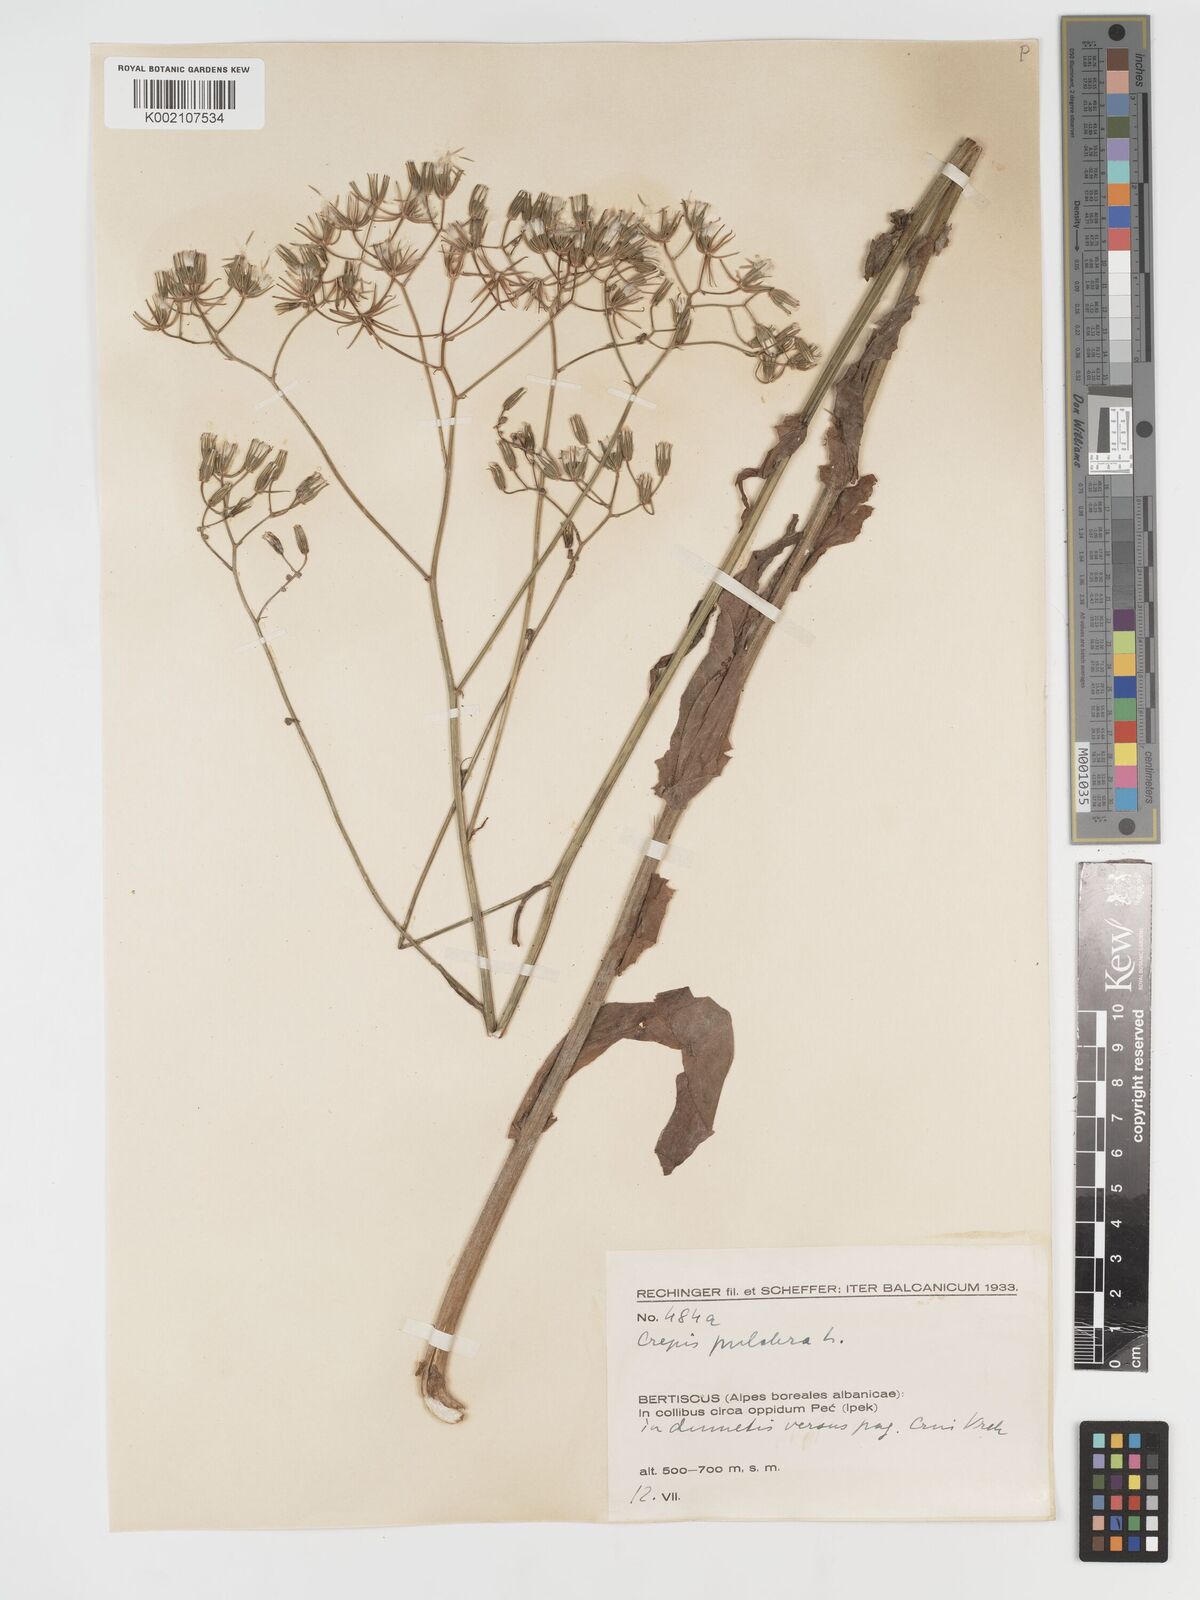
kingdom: Plantae
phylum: Tracheophyta
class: Magnoliopsida
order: Asterales
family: Asteraceae
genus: Crepis
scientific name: Crepis pulchra
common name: Hawk's-beard
